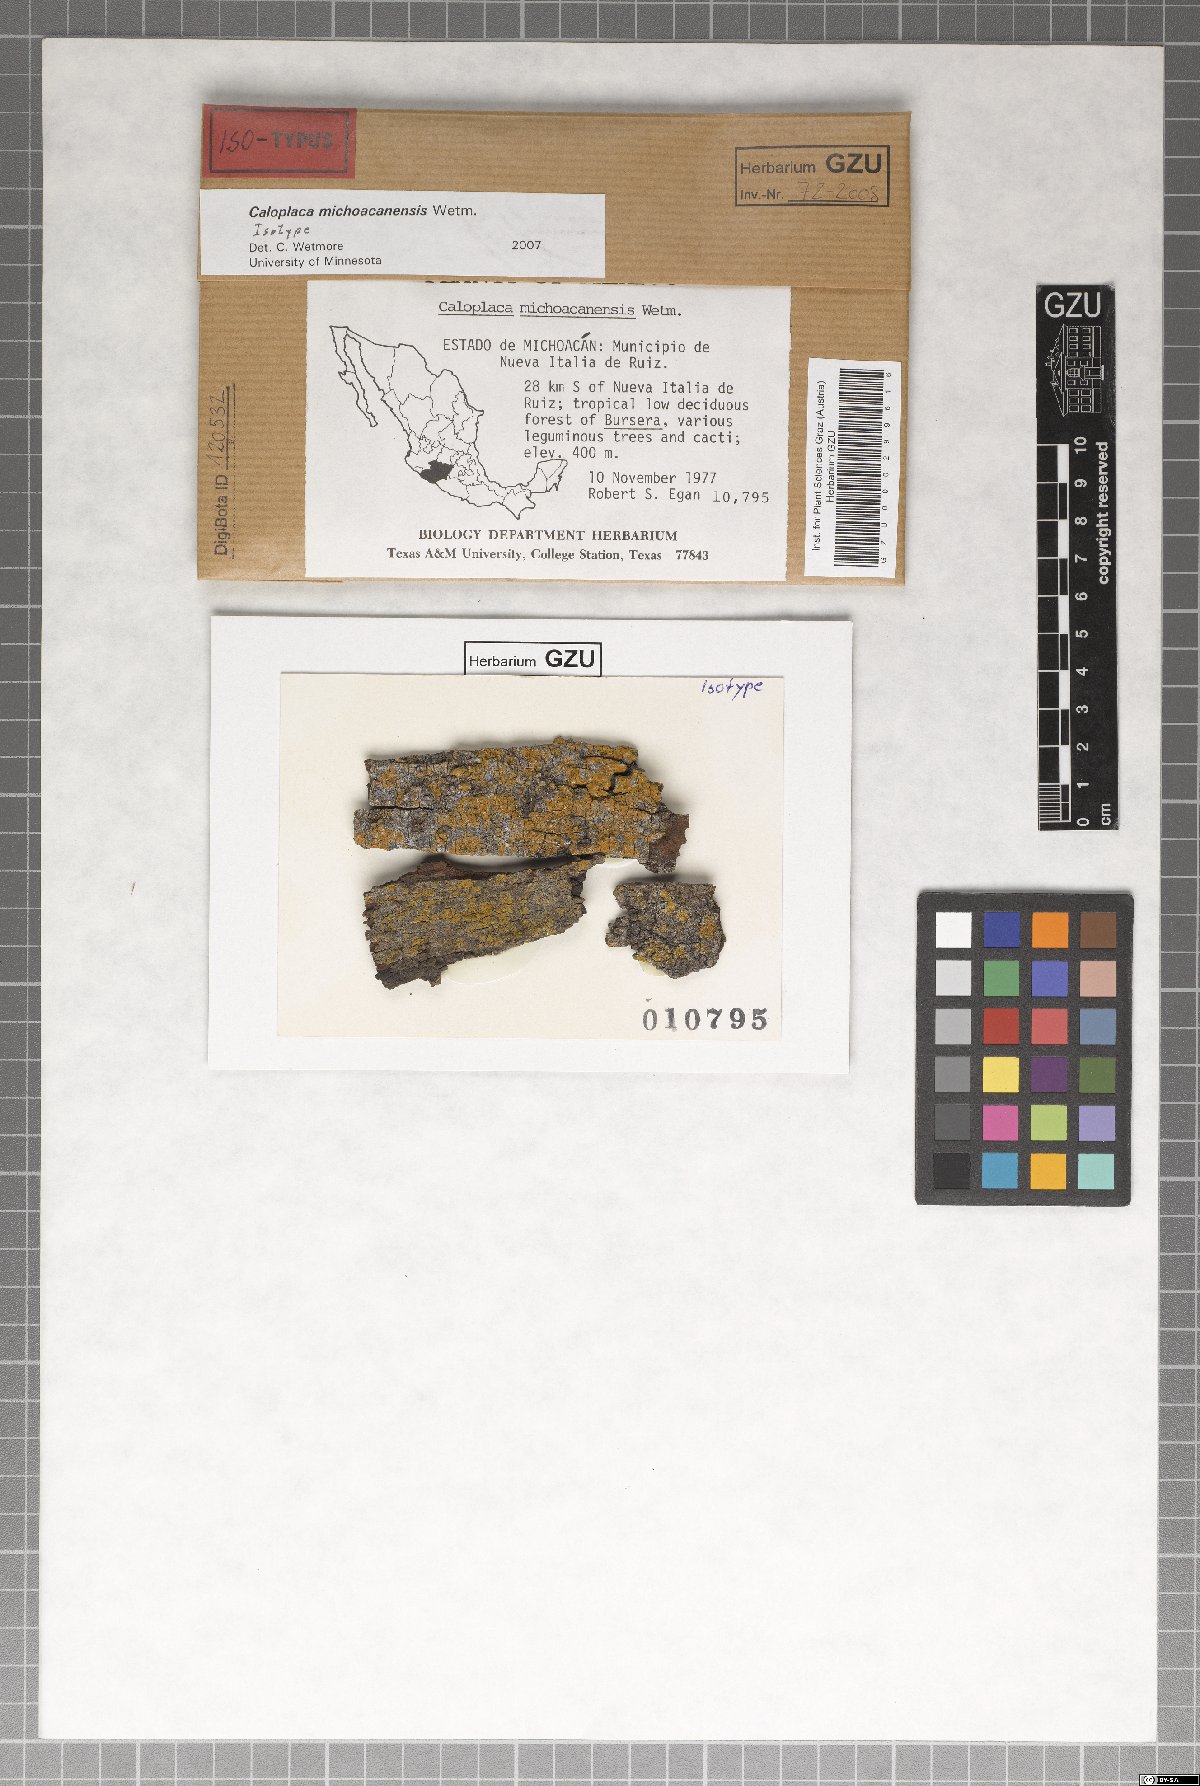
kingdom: Fungi
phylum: Ascomycota
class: Lecanoromycetes
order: Teloschistales
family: Teloschistaceae
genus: Caloplaca
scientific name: Caloplaca michoacanensis
